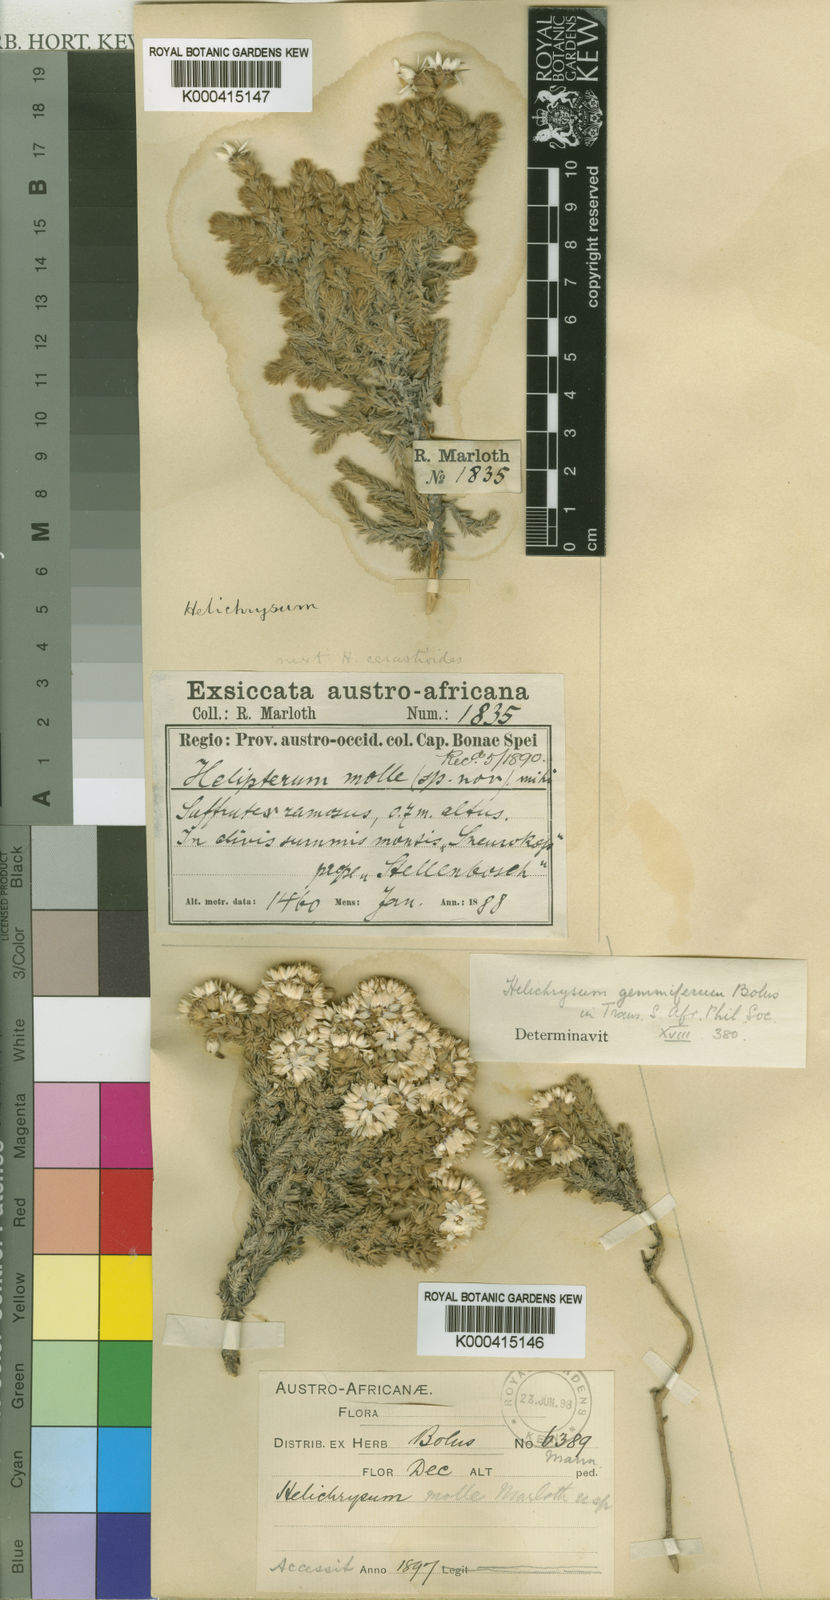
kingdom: Plantae
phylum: Tracheophyta
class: Magnoliopsida
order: Asterales
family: Asteraceae
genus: Atrichantha
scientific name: Atrichantha gemmifera
